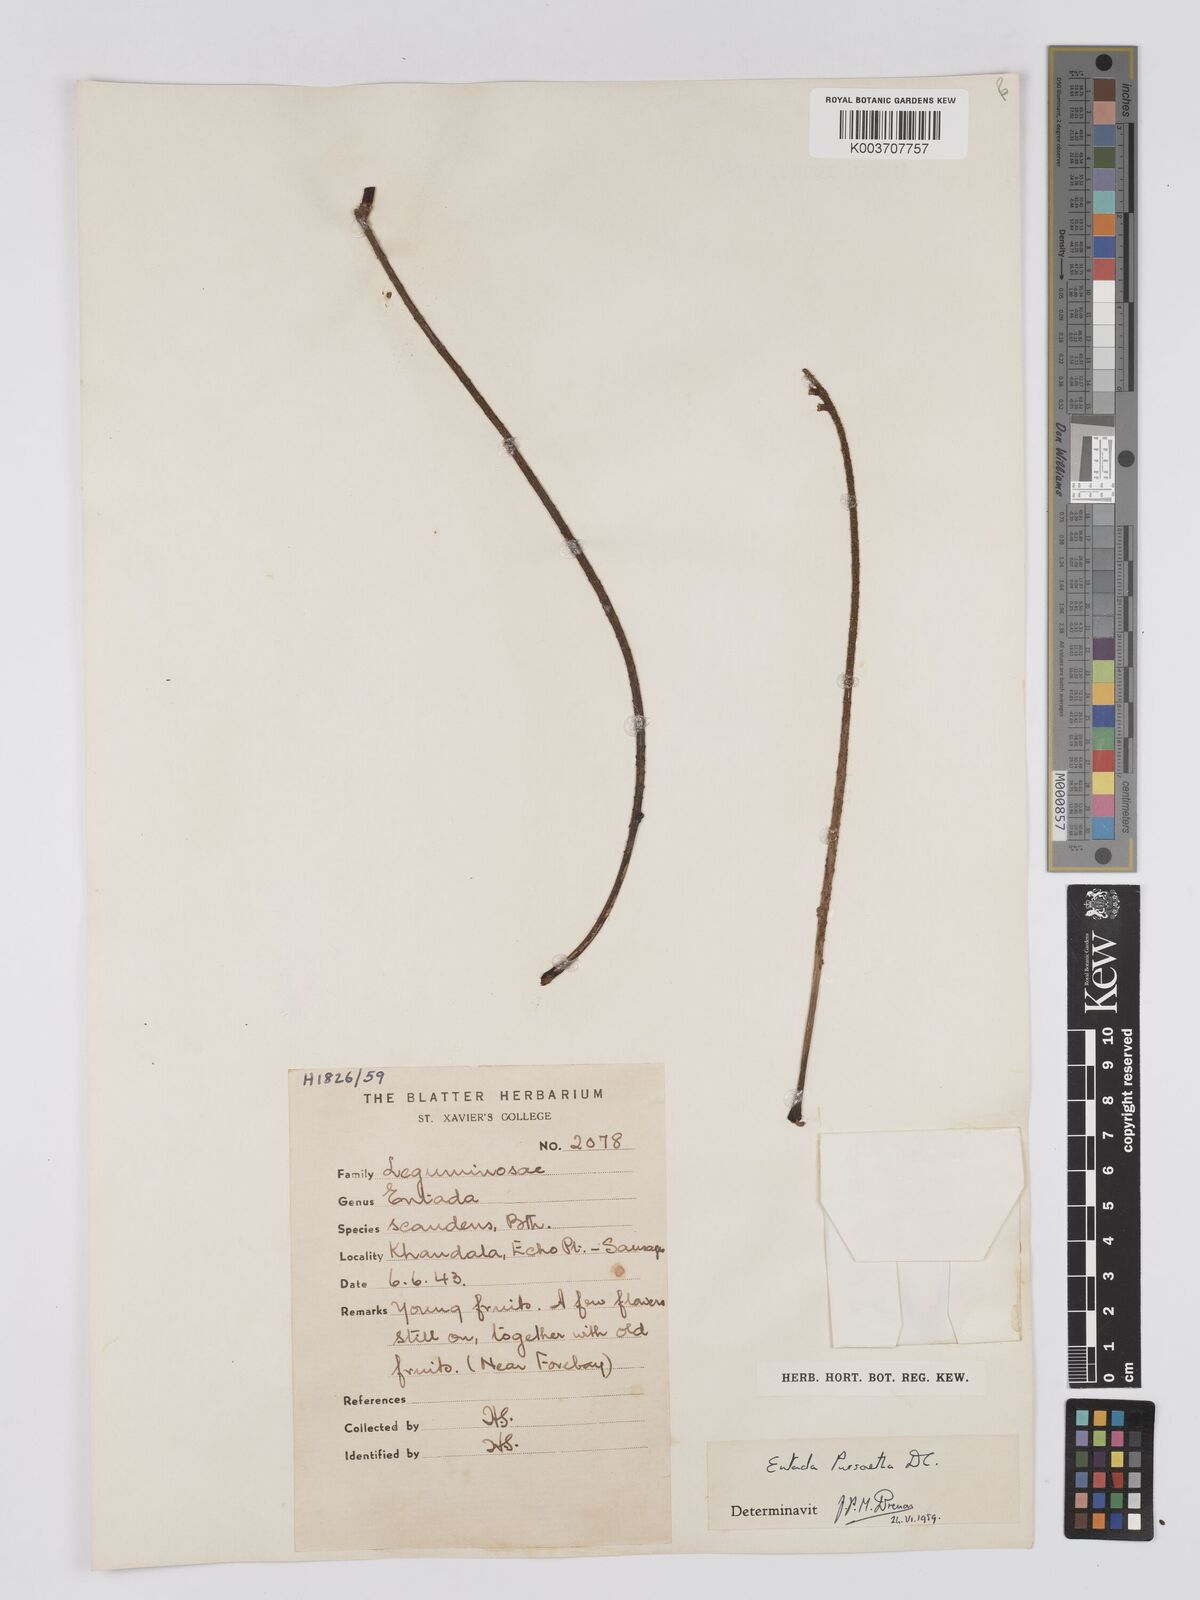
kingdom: Plantae
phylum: Tracheophyta
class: Magnoliopsida
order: Fabales
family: Fabaceae
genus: Entada
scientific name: Entada rheedei
